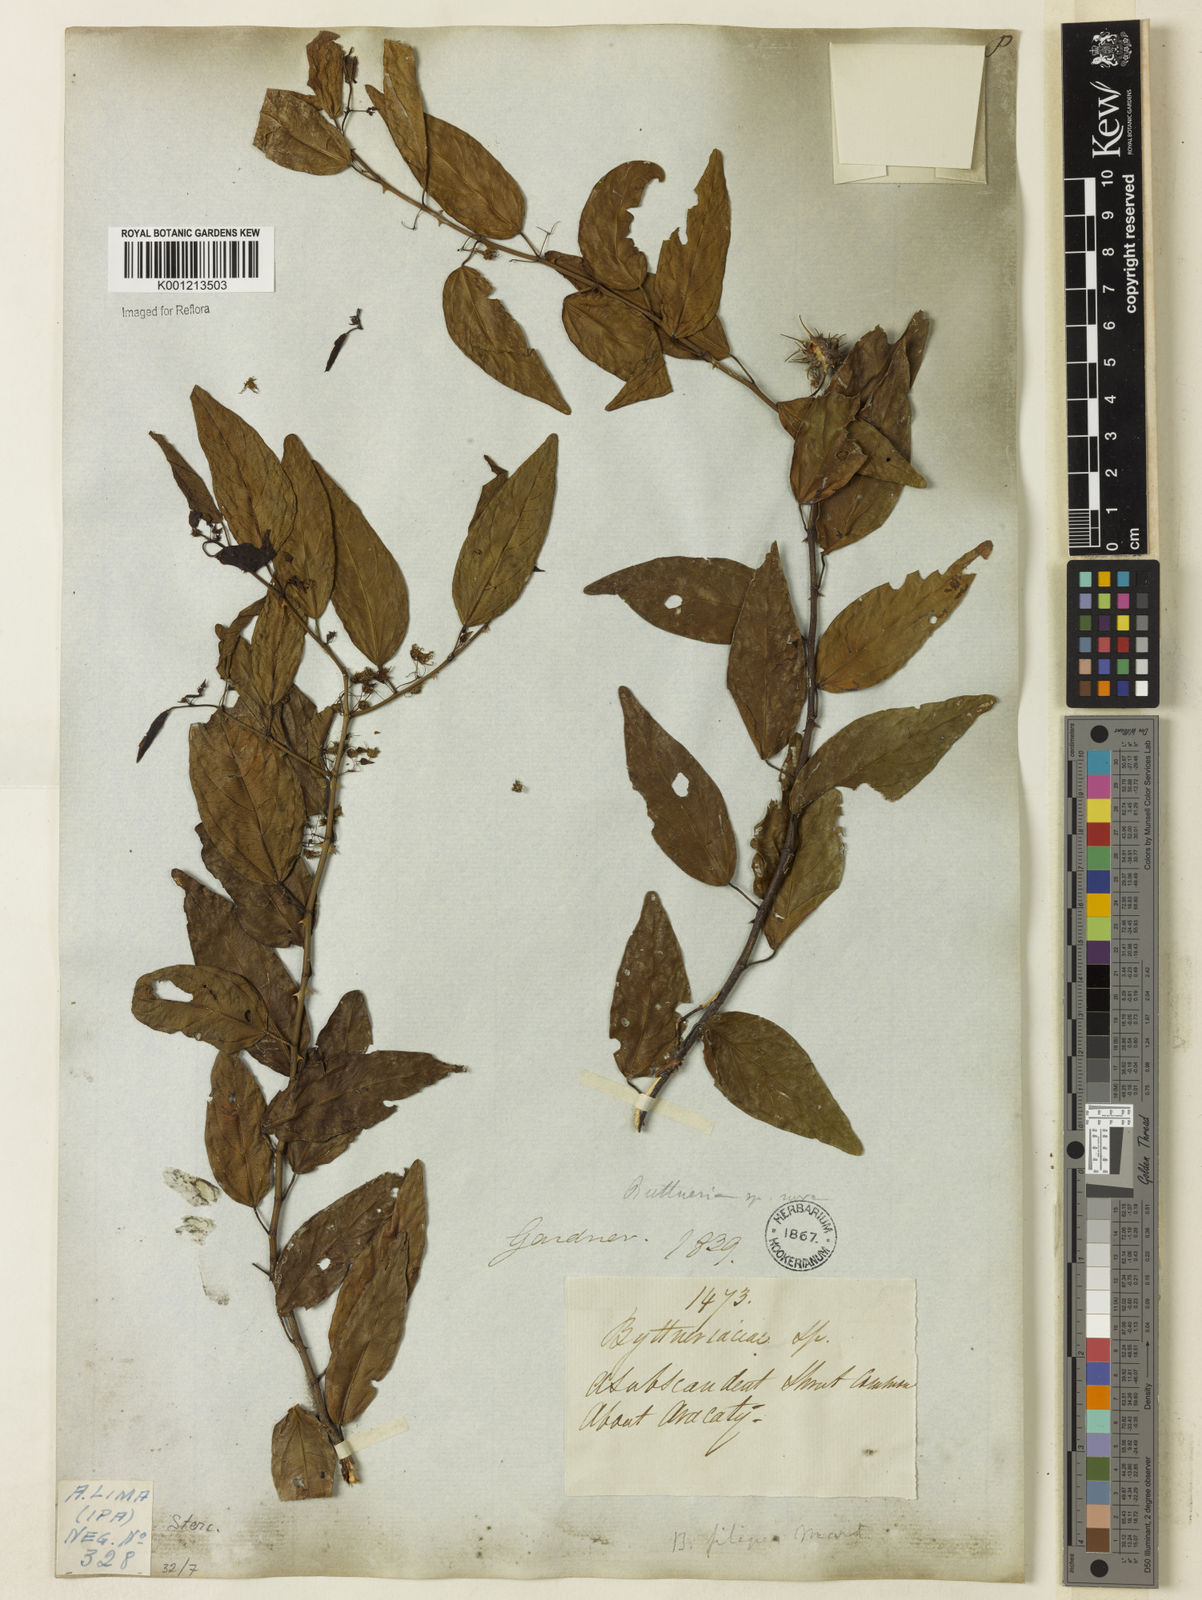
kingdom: Plantae
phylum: Tracheophyta
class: Magnoliopsida
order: Malvales
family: Malvaceae
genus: Byttneria
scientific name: Byttneria filipes
